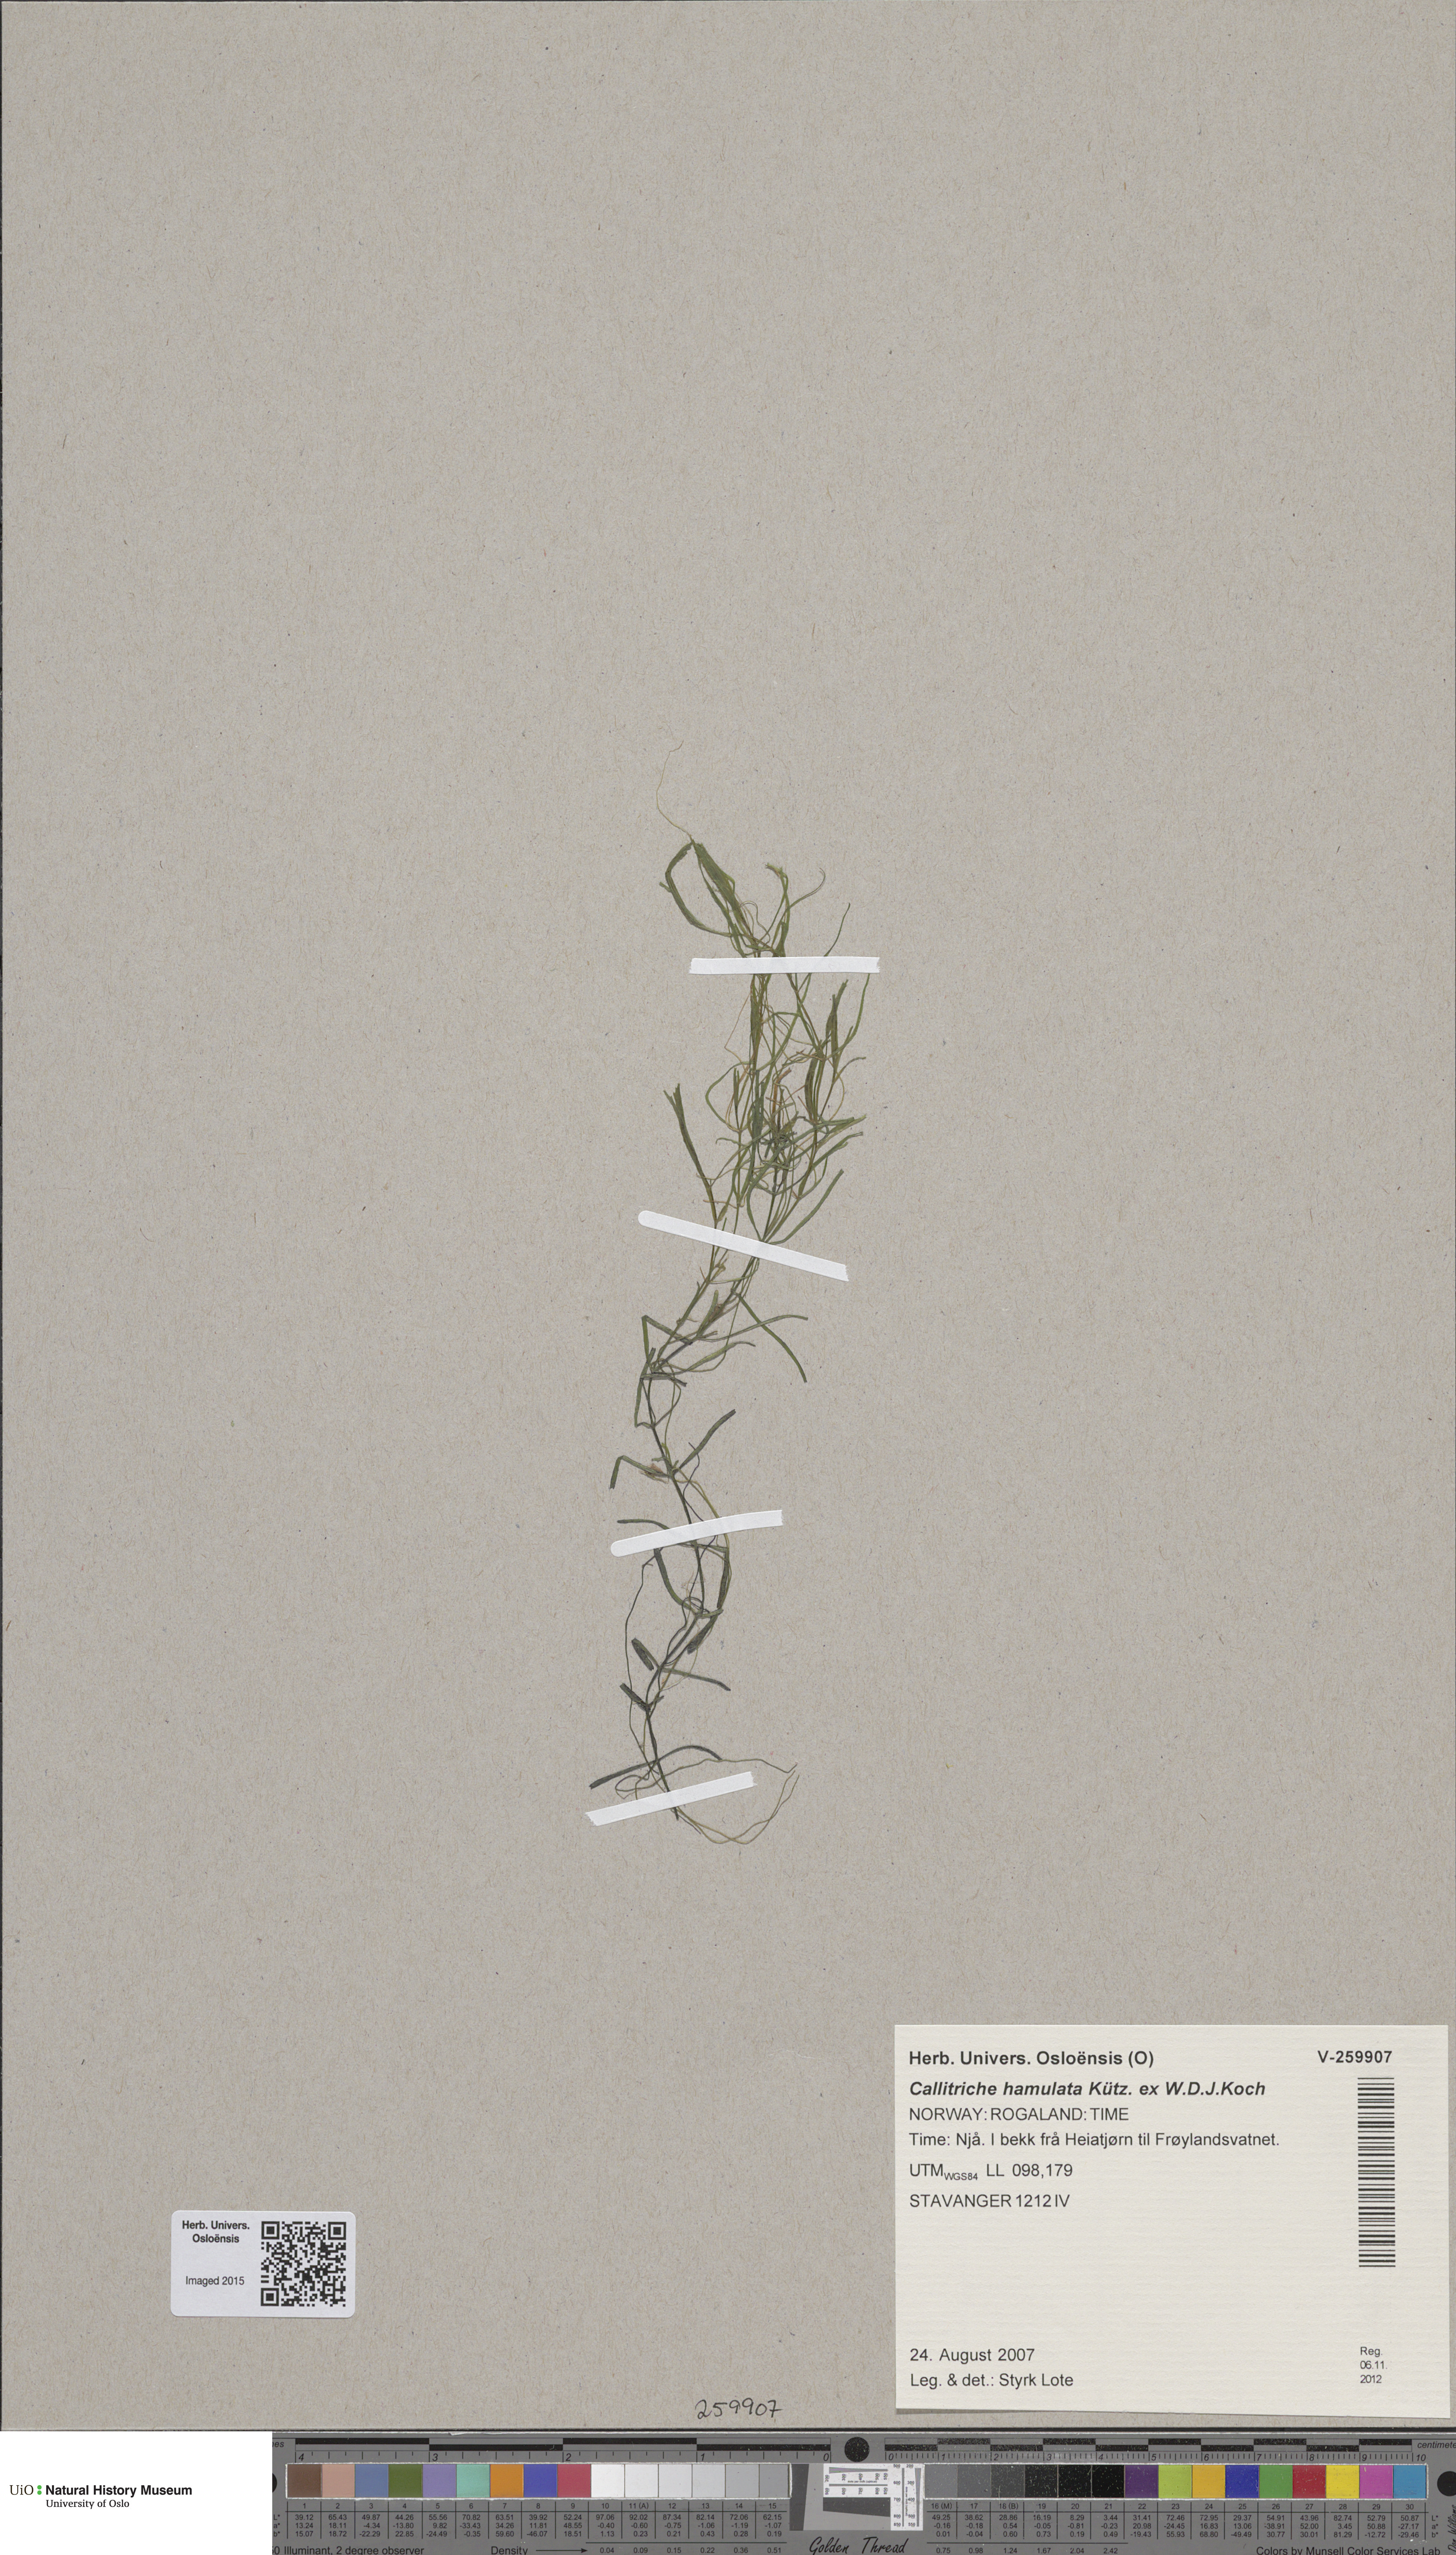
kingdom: Plantae
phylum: Tracheophyta
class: Magnoliopsida
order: Lamiales
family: Plantaginaceae
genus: Callitriche
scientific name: Callitriche hamulata
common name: Intermediate water-starwort
